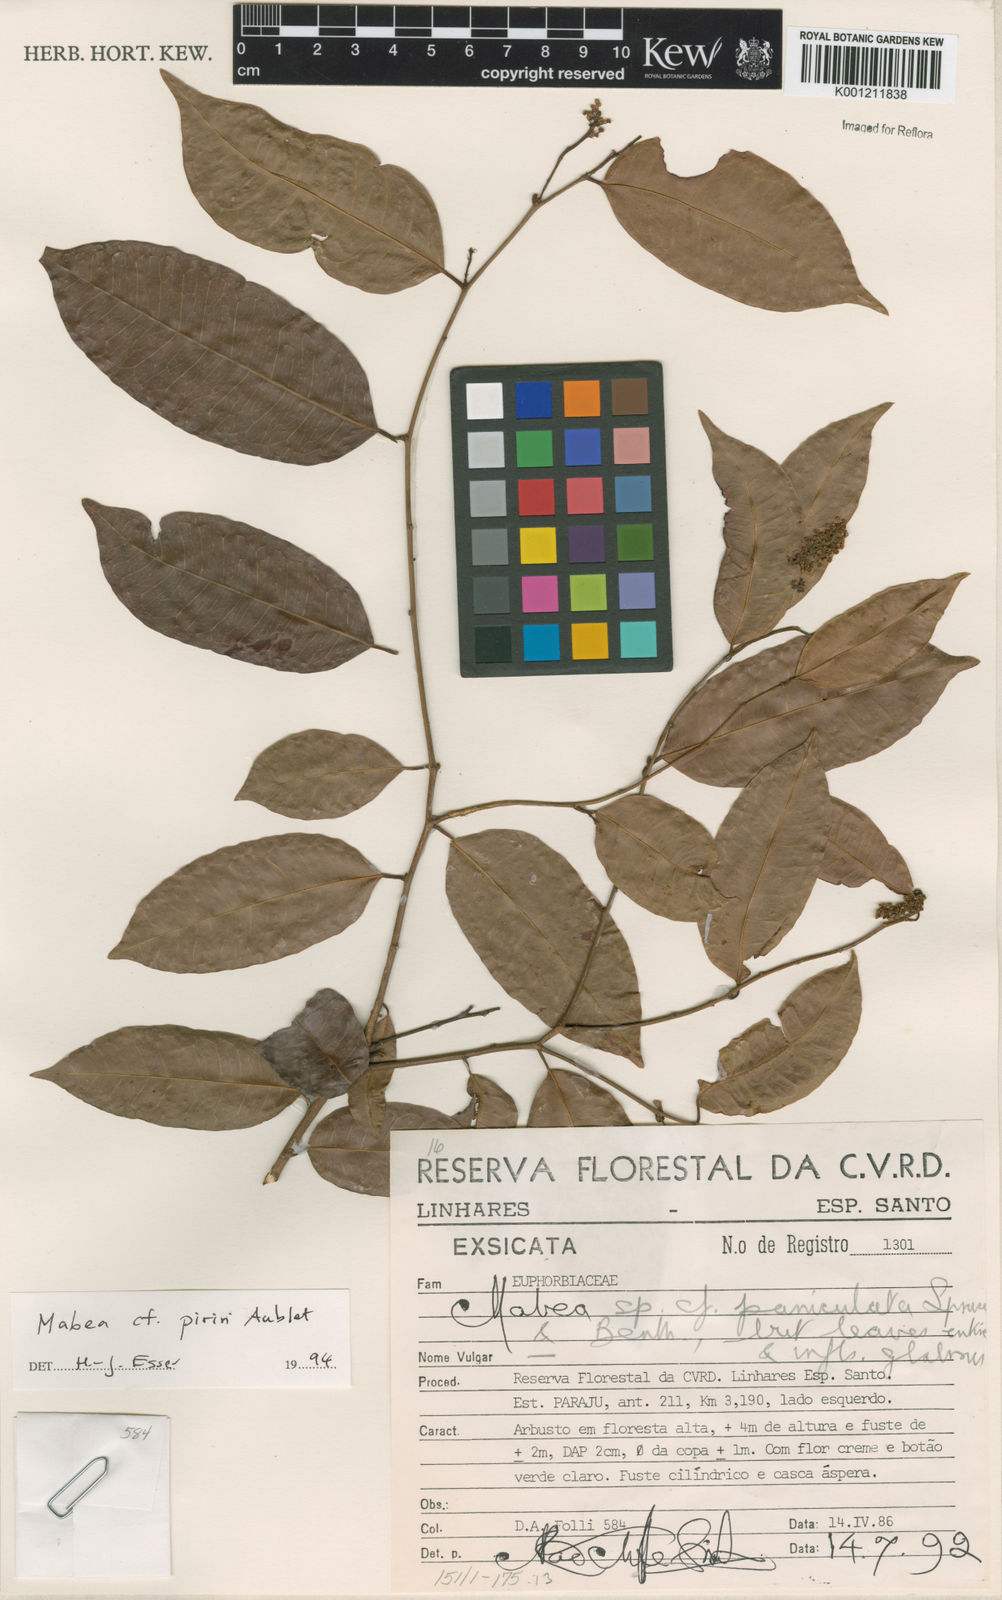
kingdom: Plantae
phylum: Tracheophyta
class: Magnoliopsida
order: Malpighiales
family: Euphorbiaceae
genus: Mabea
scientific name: Mabea piriri
